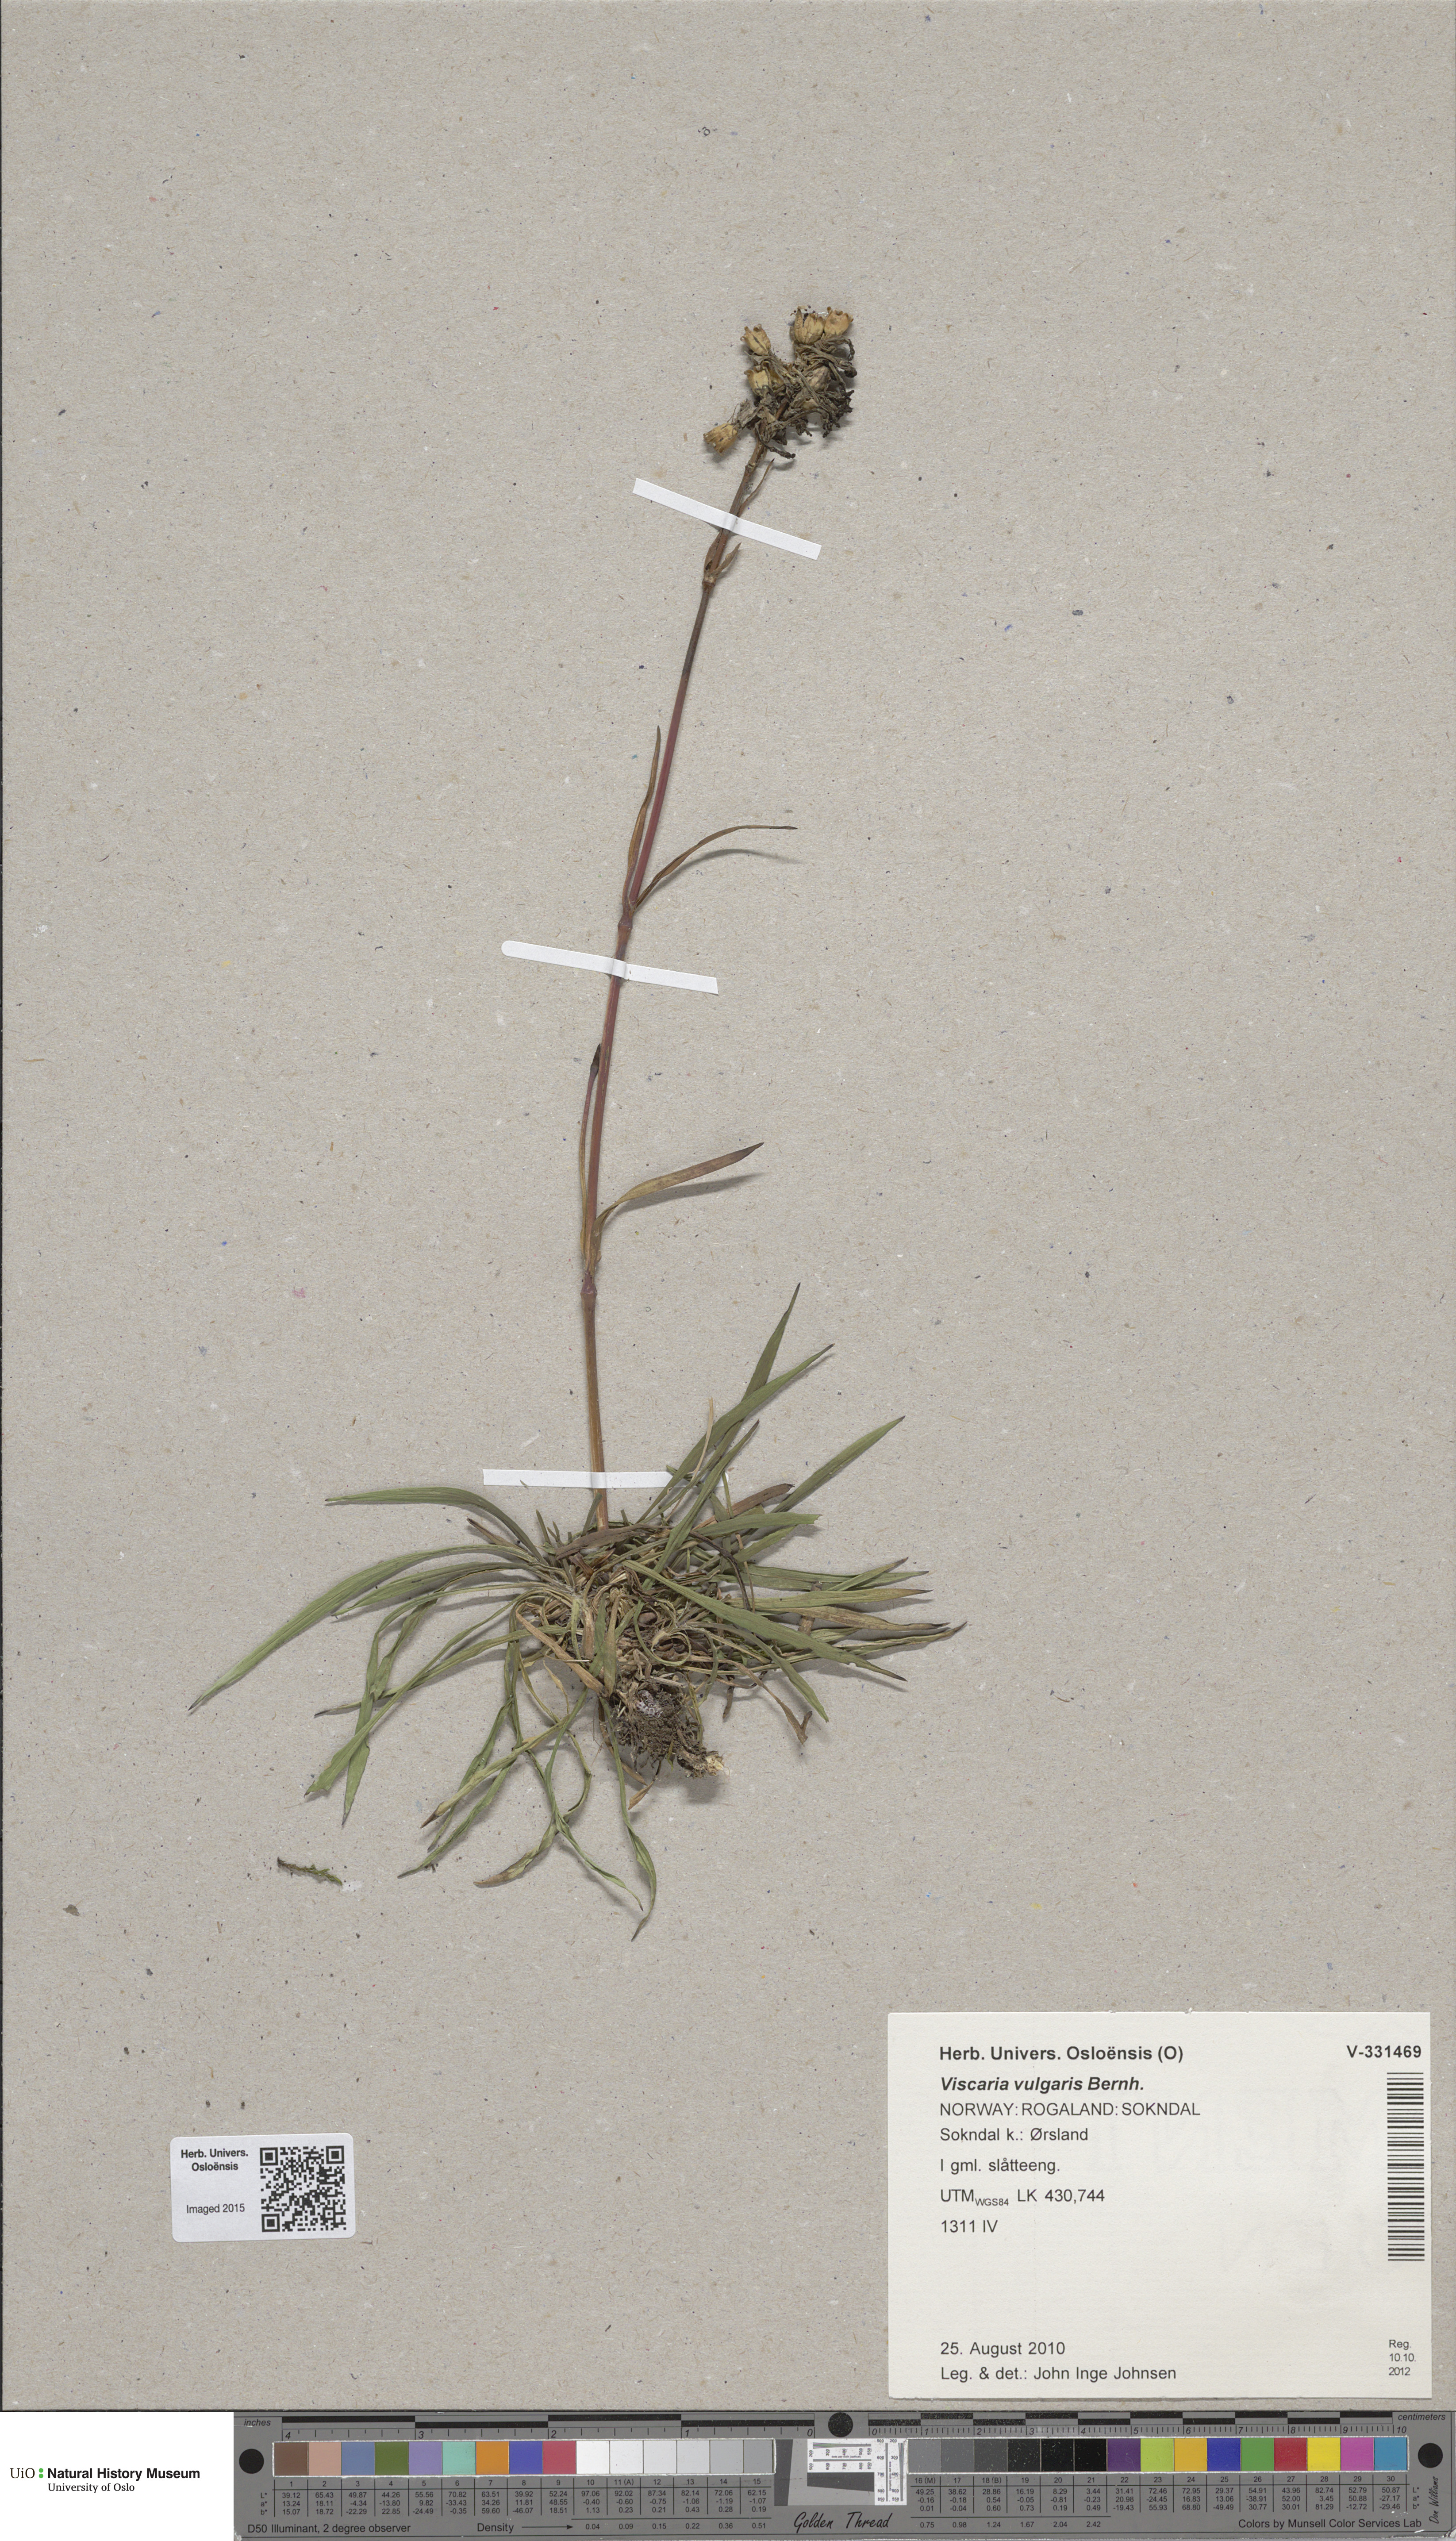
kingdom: Plantae
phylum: Tracheophyta
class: Magnoliopsida
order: Caryophyllales
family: Caryophyllaceae
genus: Viscaria
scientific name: Viscaria vulgaris
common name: Clammy campion
